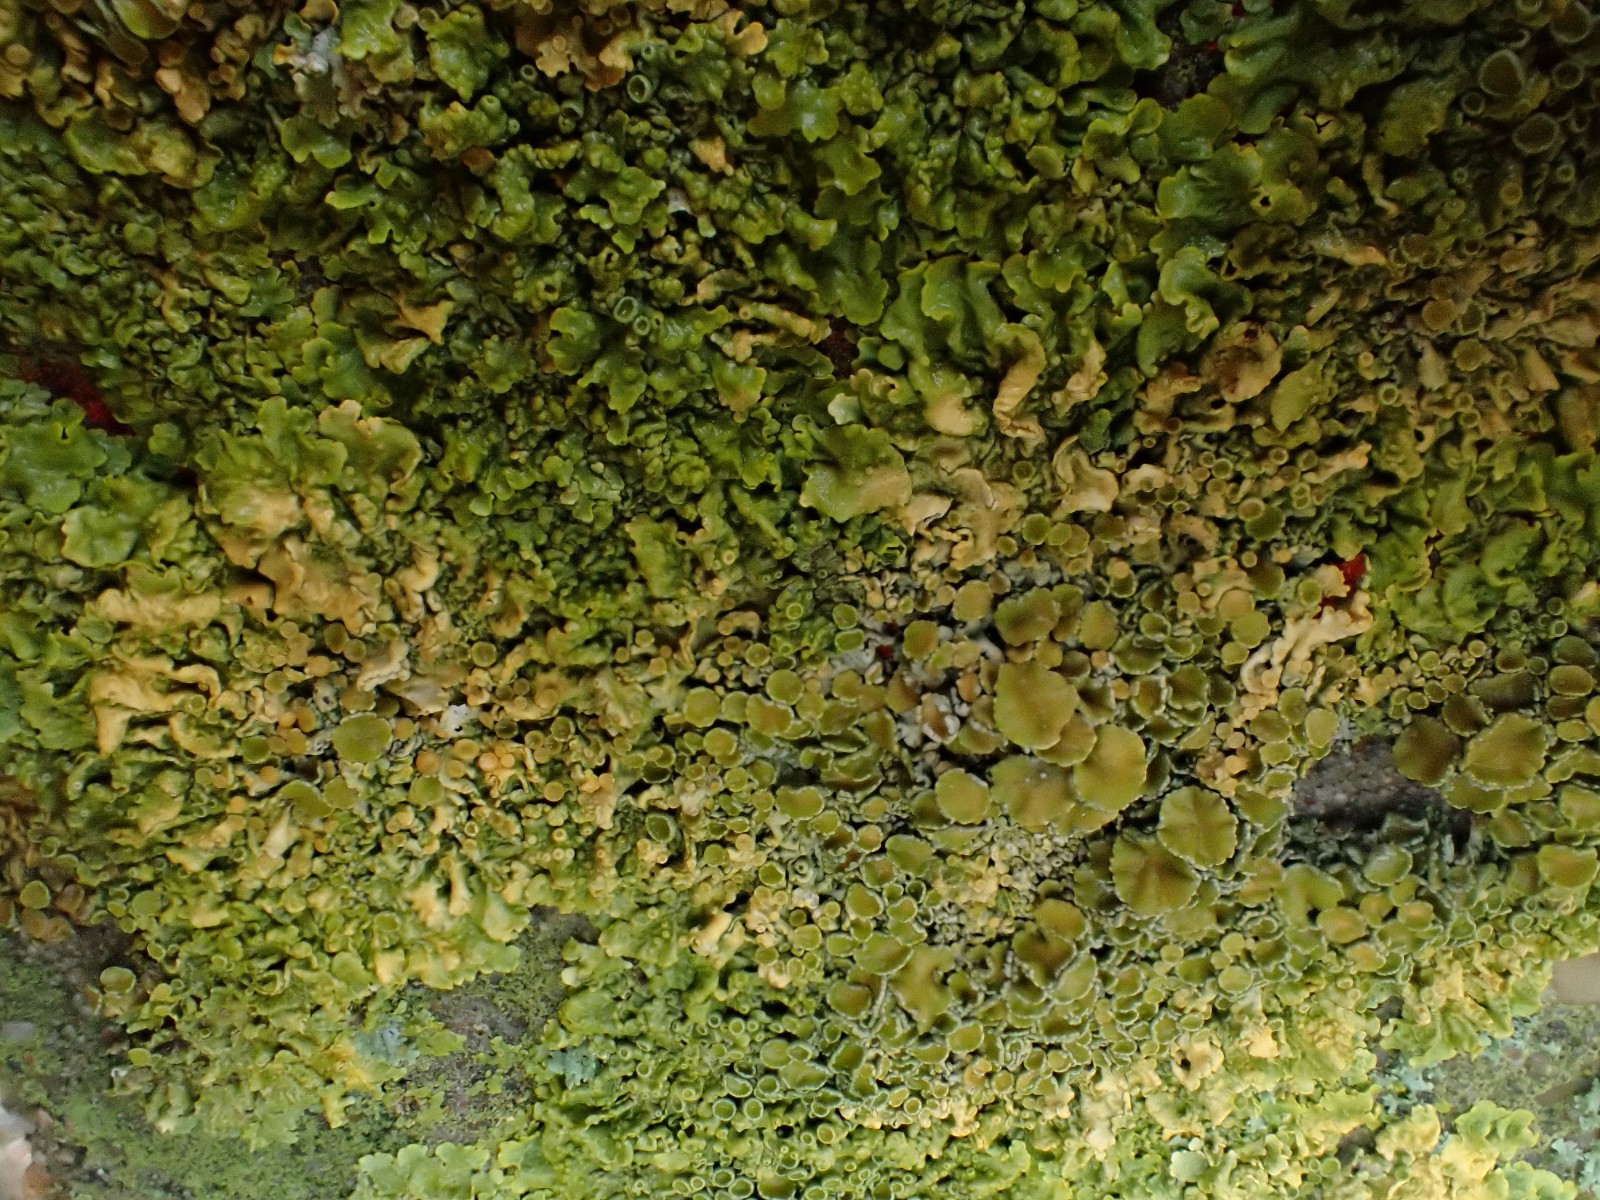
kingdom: Fungi
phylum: Ascomycota
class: Lecanoromycetes
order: Teloschistales
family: Teloschistaceae
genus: Xanthoria
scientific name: Xanthoria parietina
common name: almindelig væggelav
